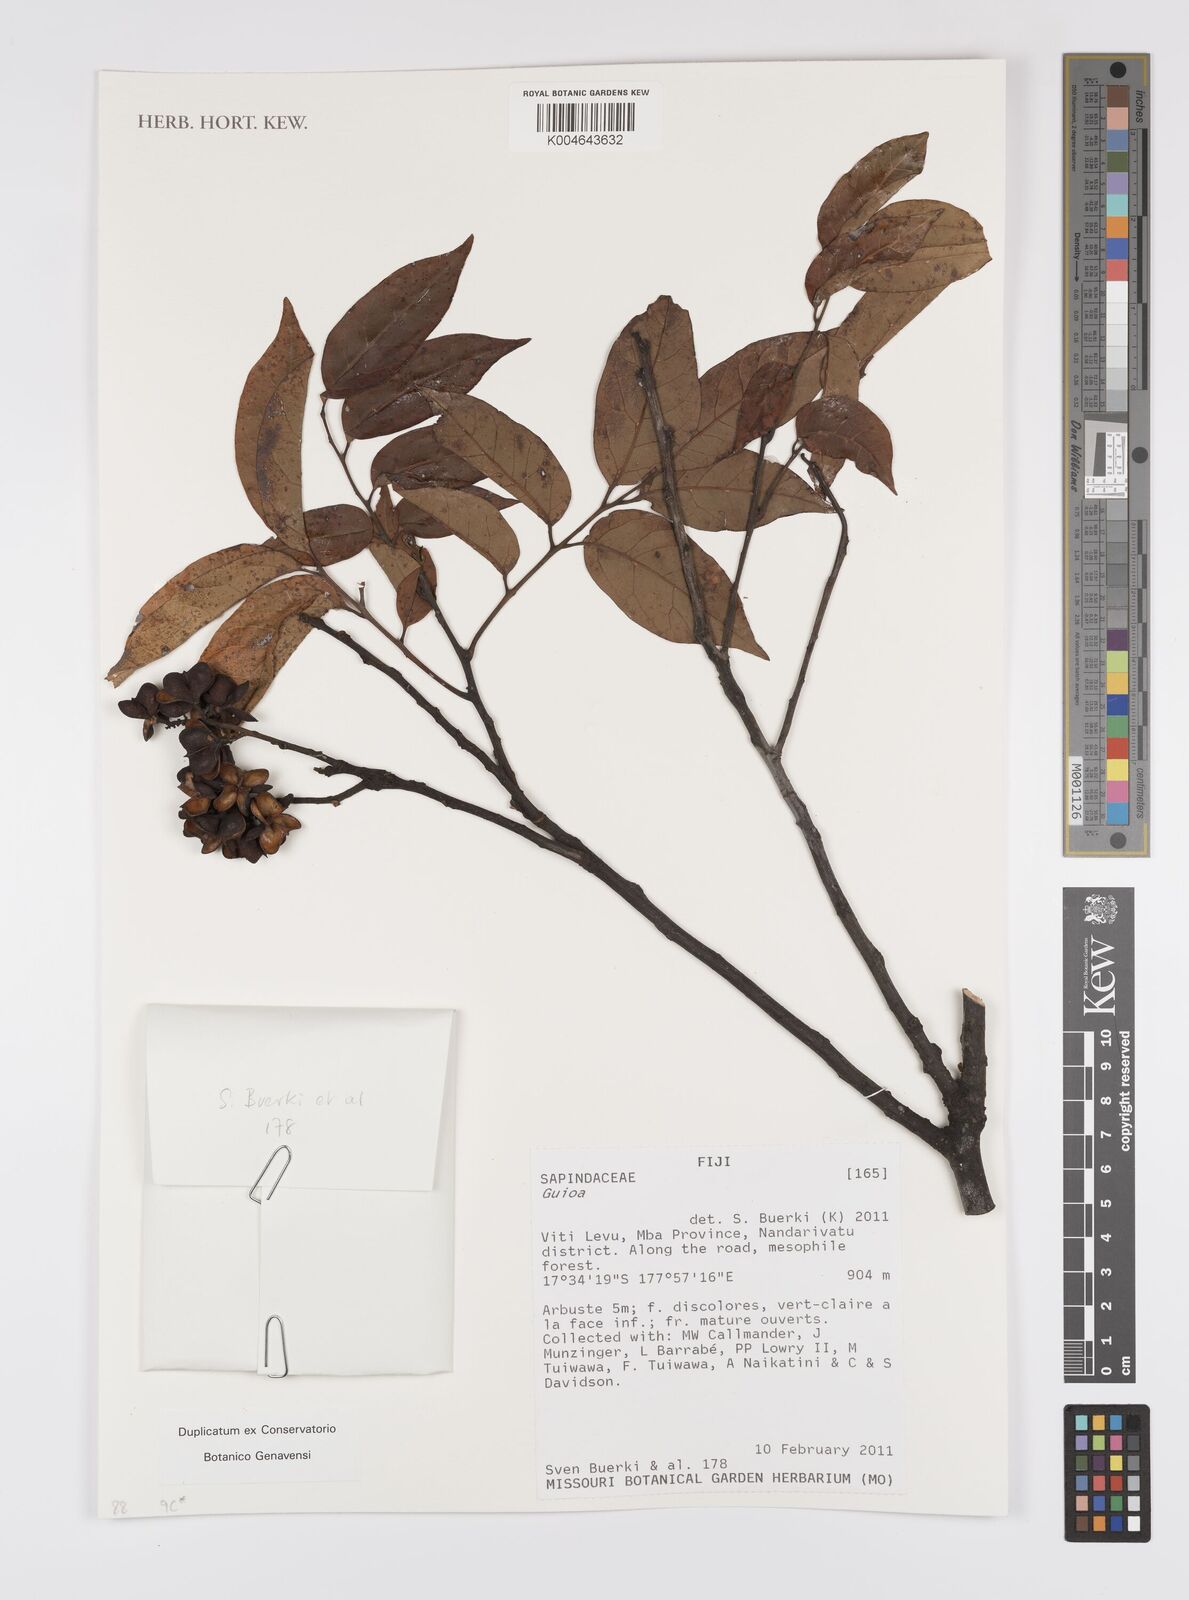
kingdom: Plantae
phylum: Tracheophyta
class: Magnoliopsida
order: Sapindales
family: Sapindaceae
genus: Guioa
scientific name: Guioa
